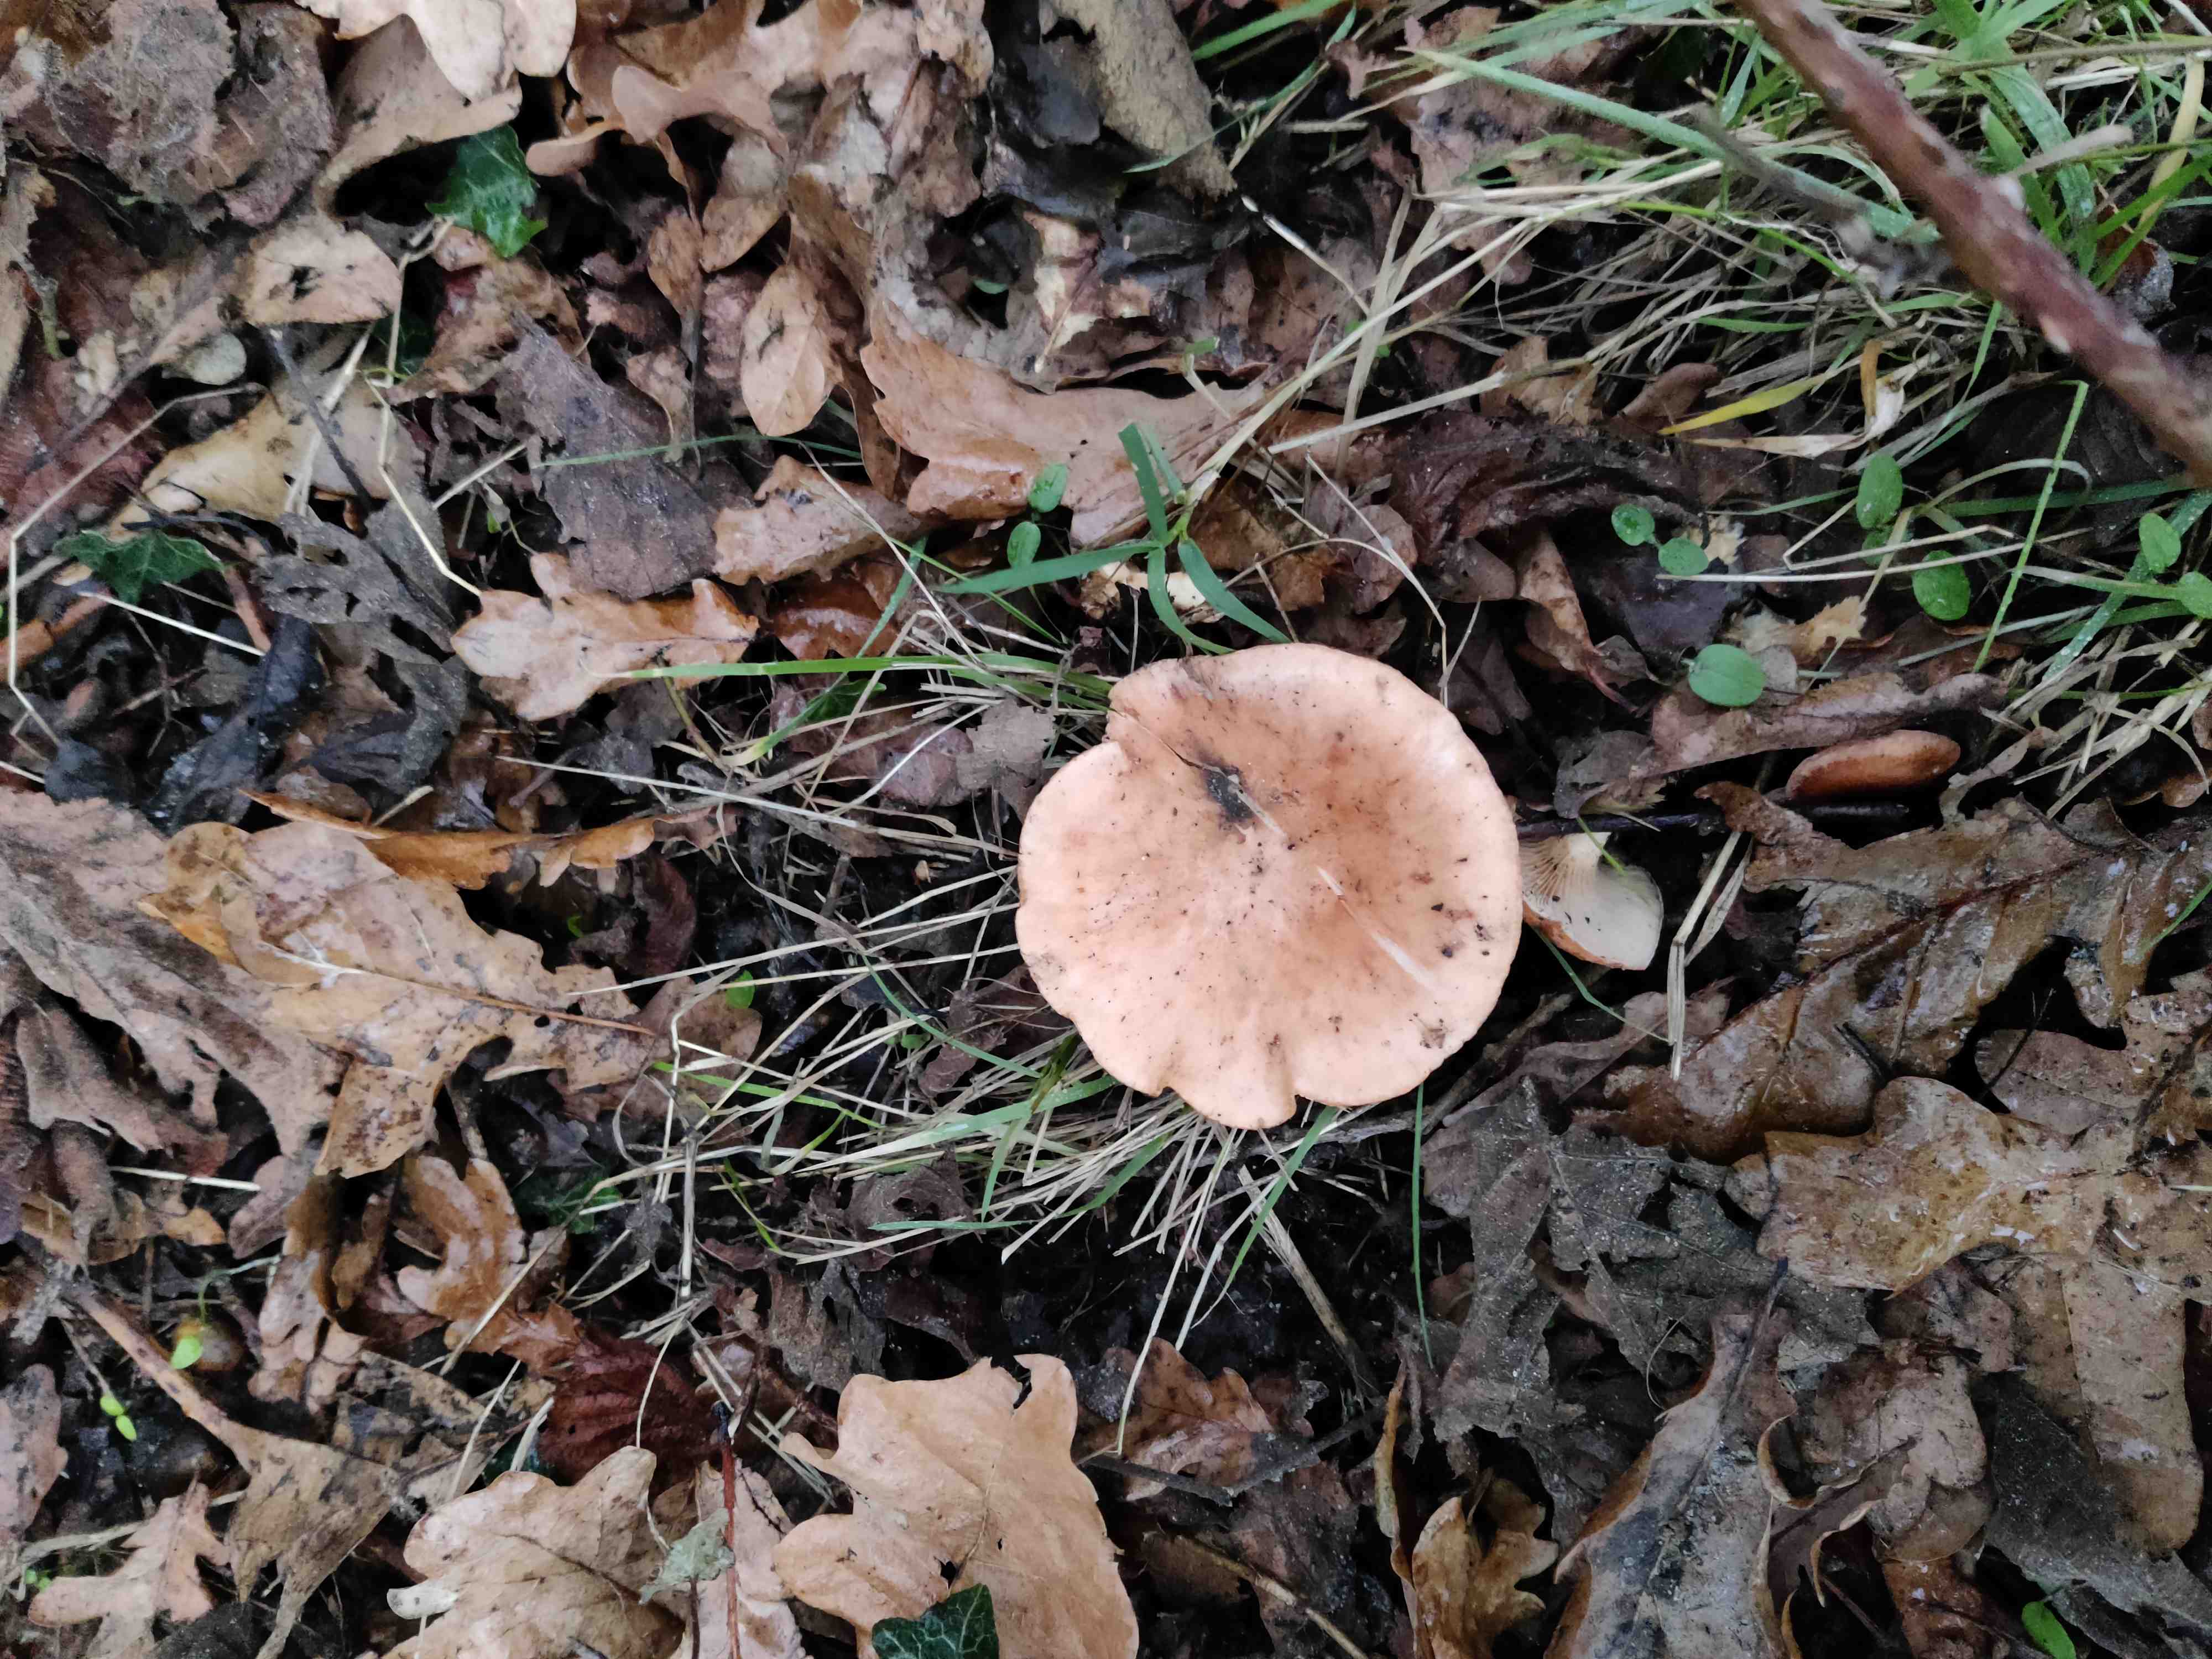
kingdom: Fungi
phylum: Basidiomycota
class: Agaricomycetes
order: Agaricales
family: Tricholomataceae
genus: Paralepista
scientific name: Paralepista
